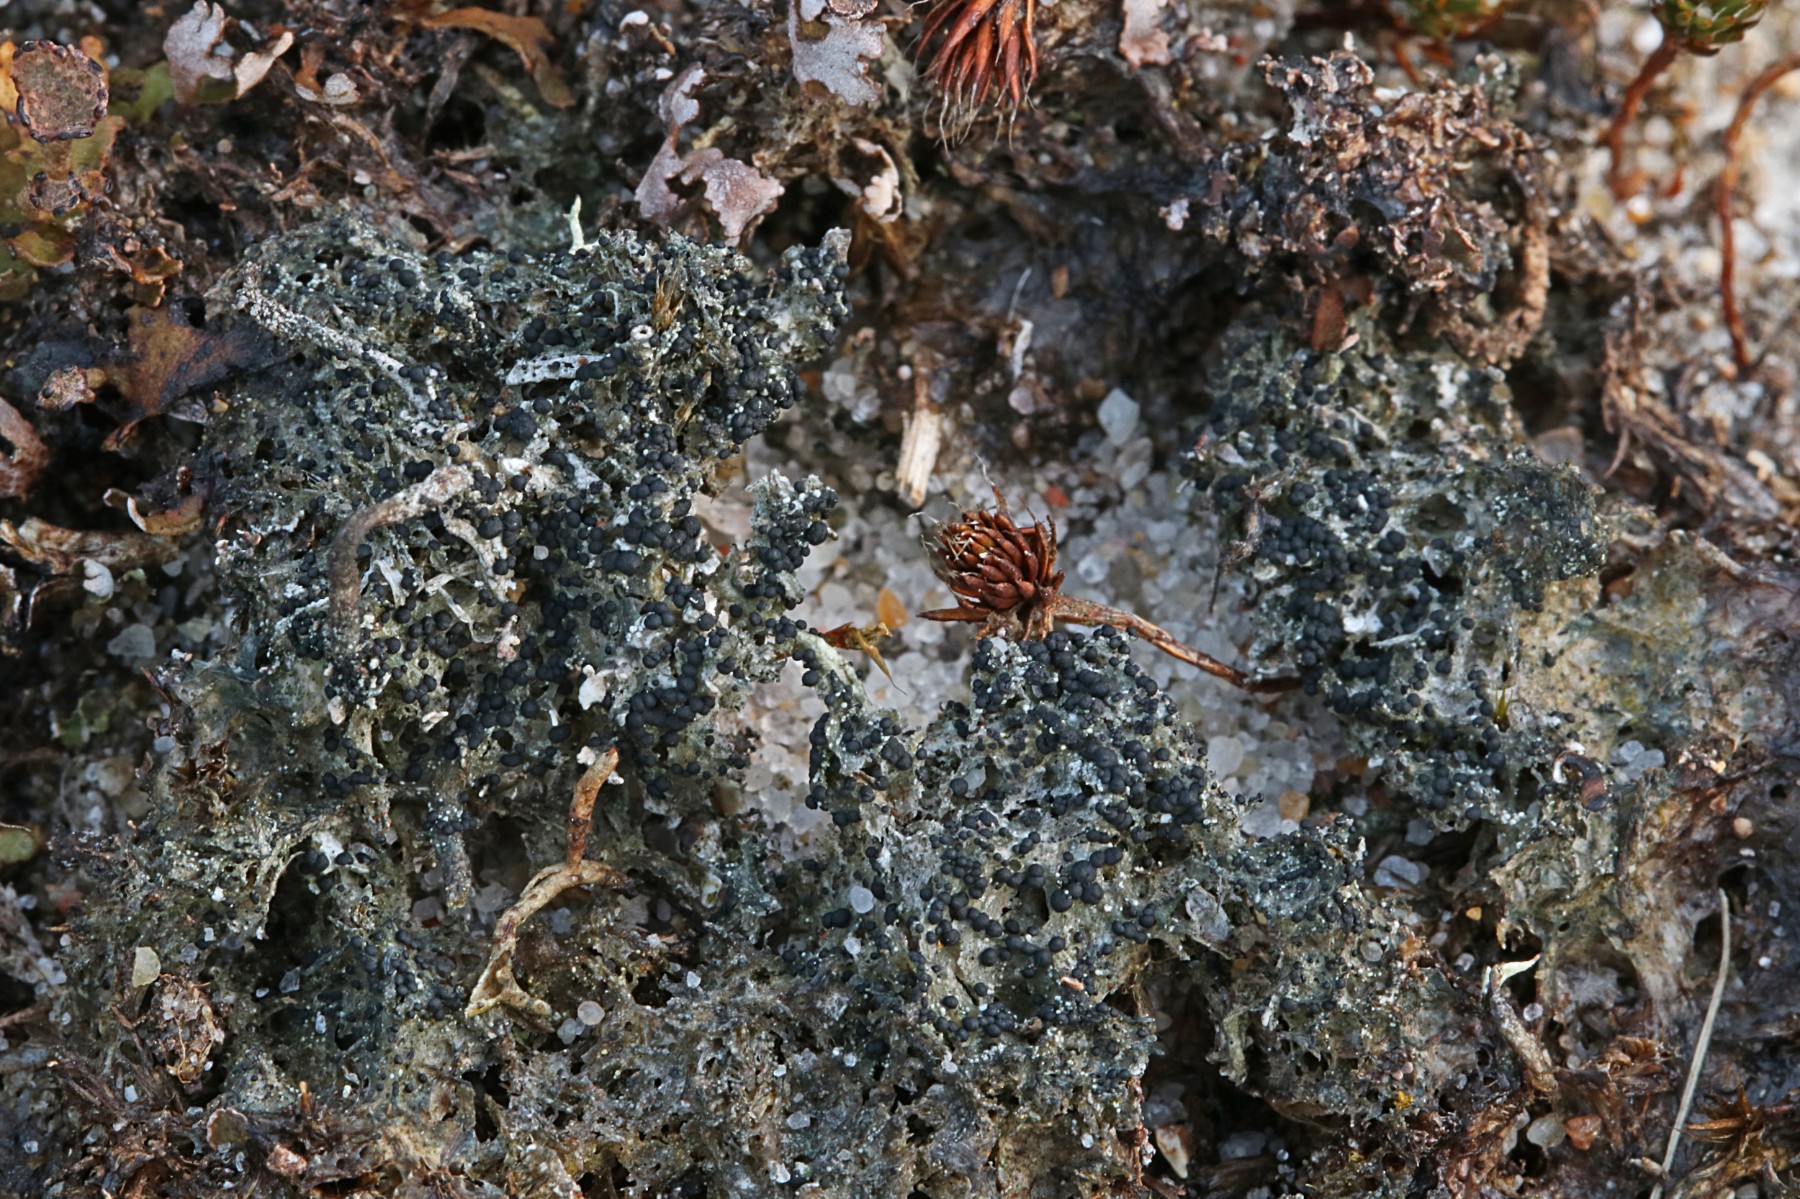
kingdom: Fungi
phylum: Ascomycota
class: Lecanoromycetes
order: Lecanorales
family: Byssolomataceae
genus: Micarea
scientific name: Micarea lignaria
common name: tørve-knaplav
